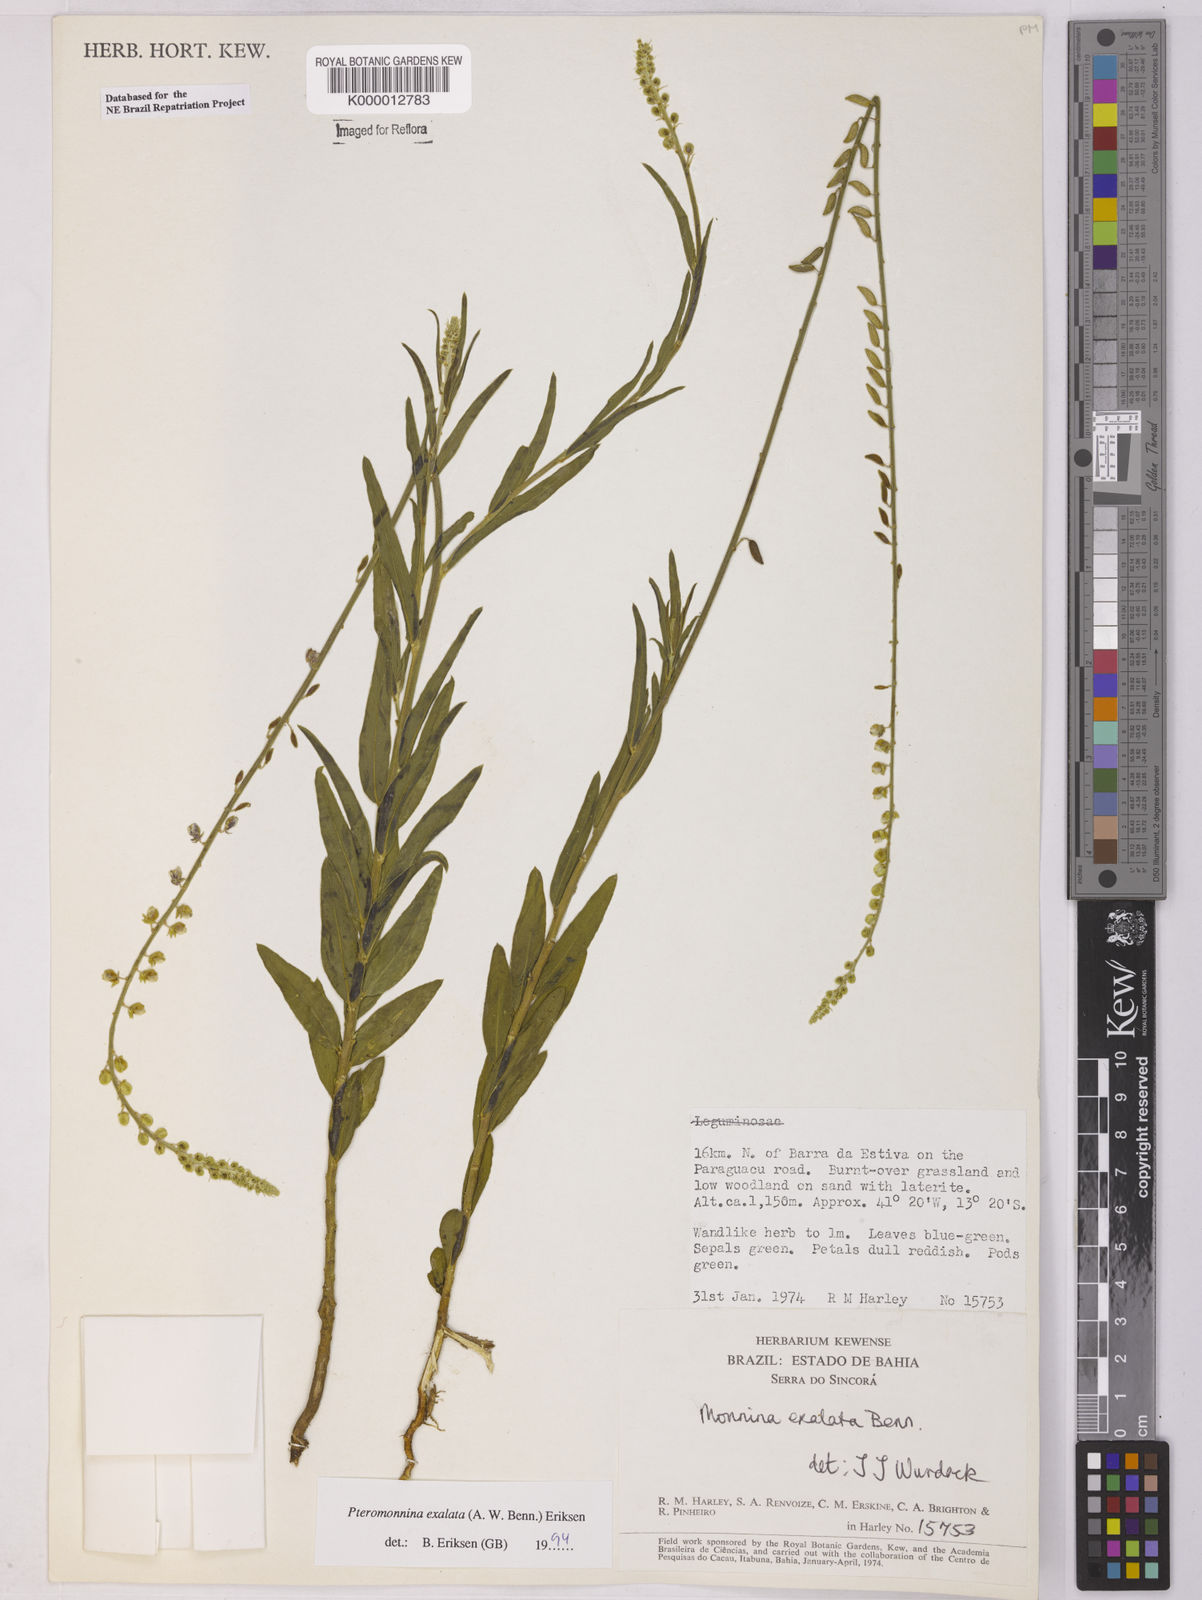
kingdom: Plantae
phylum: Tracheophyta
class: Magnoliopsida
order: Fabales
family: Polygalaceae
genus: Monnina
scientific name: Monnina exalata
